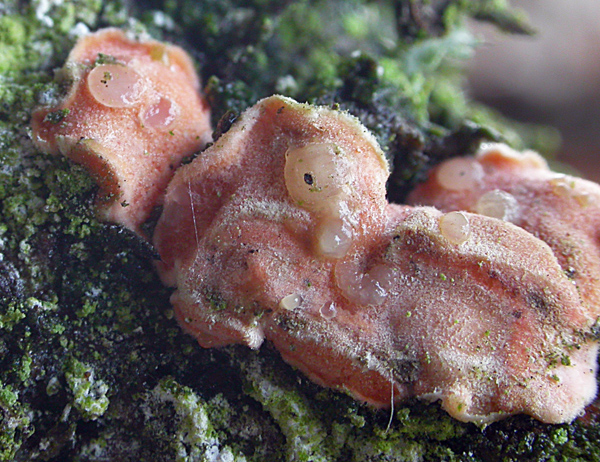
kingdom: Fungi
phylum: Basidiomycota
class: Tremellomycetes
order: Tremellales
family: Tremellaceae
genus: Phaeotremella
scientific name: Phaeotremella simplex
